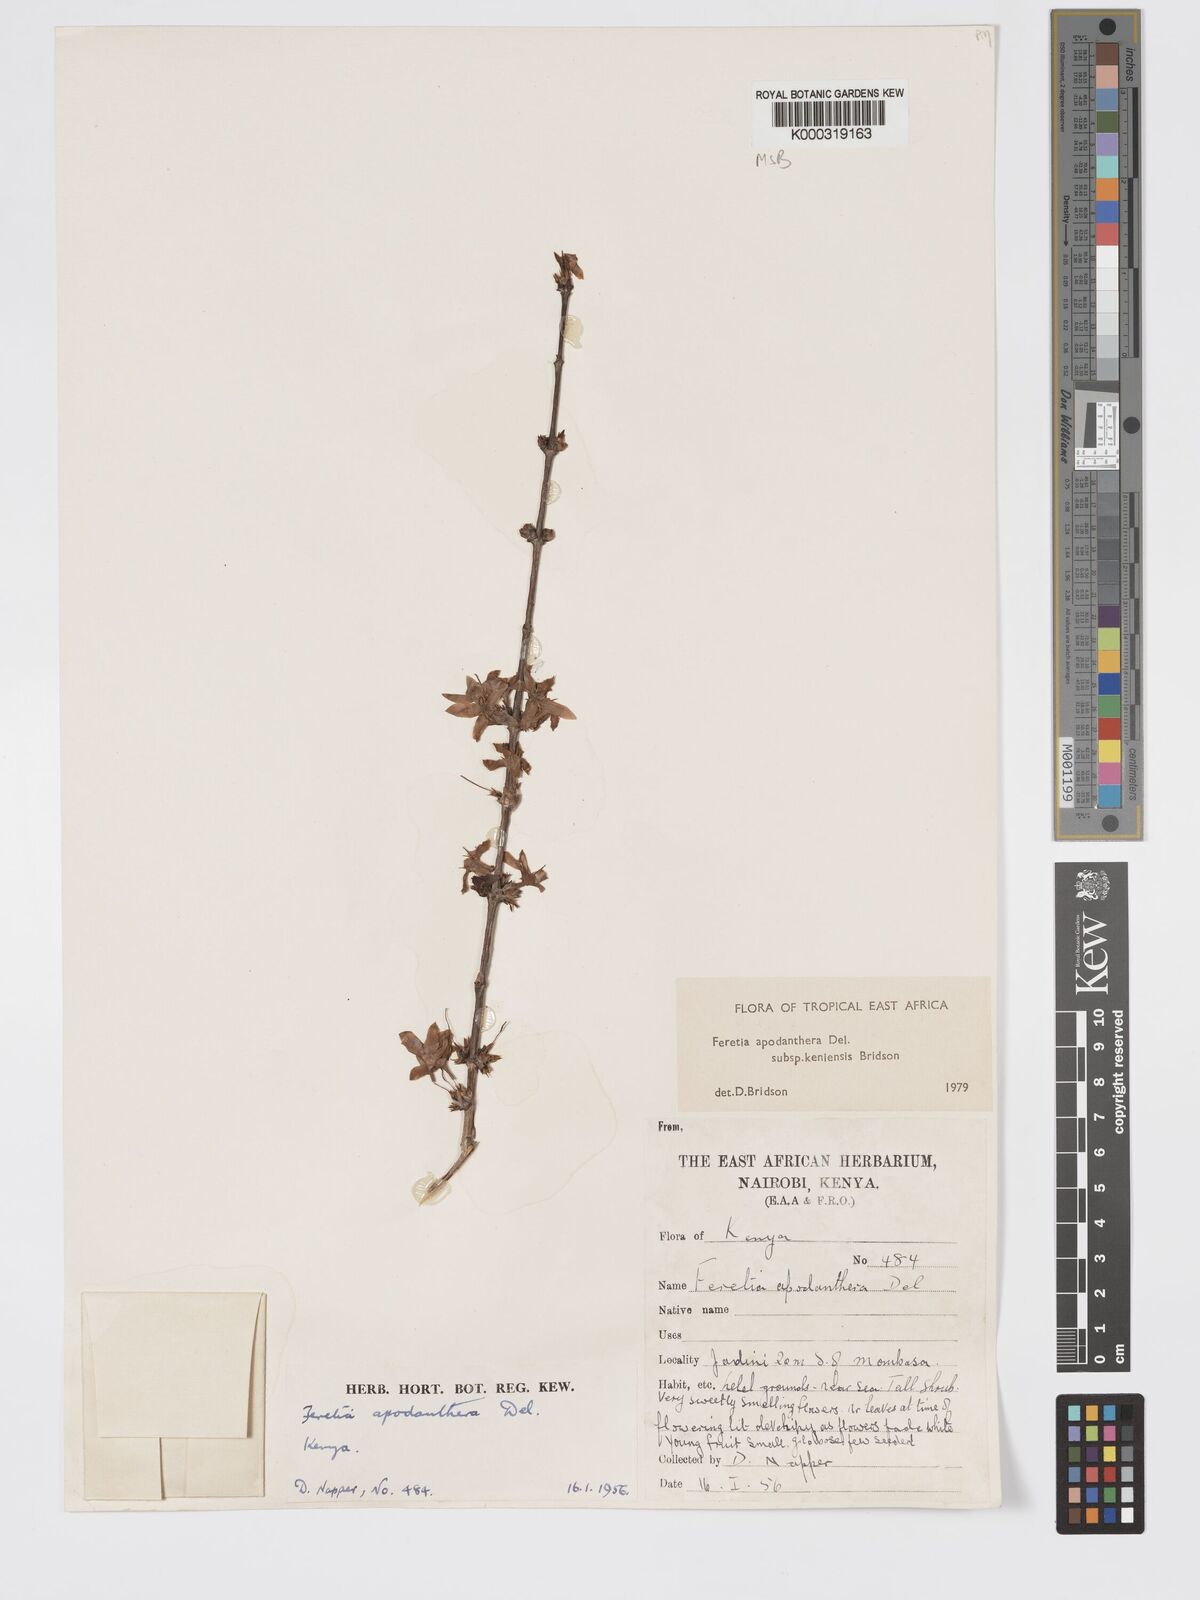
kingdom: Plantae
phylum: Tracheophyta
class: Magnoliopsida
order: Gentianales
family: Rubiaceae
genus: Feretia
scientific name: Feretia apodanthera
